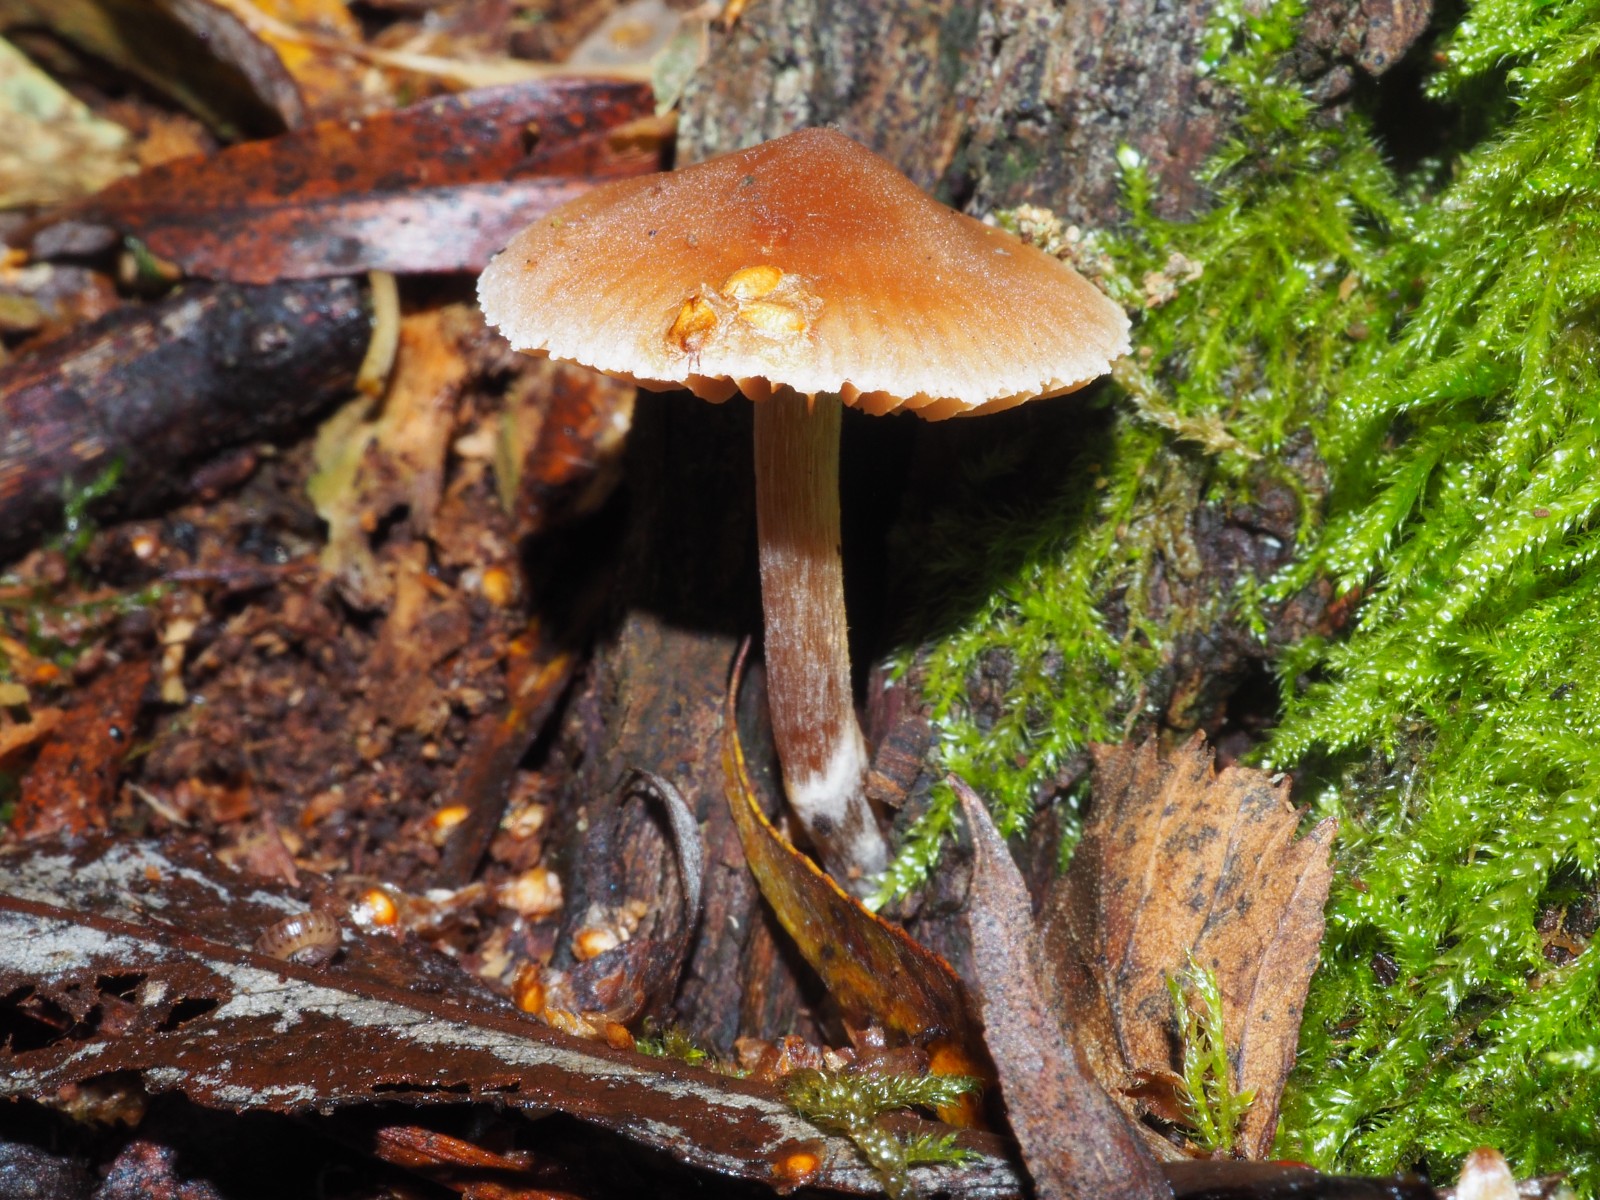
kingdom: Fungi
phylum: Basidiomycota
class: Agaricomycetes
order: Agaricales
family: Cortinariaceae
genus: Cortinarius
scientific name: Cortinarius
